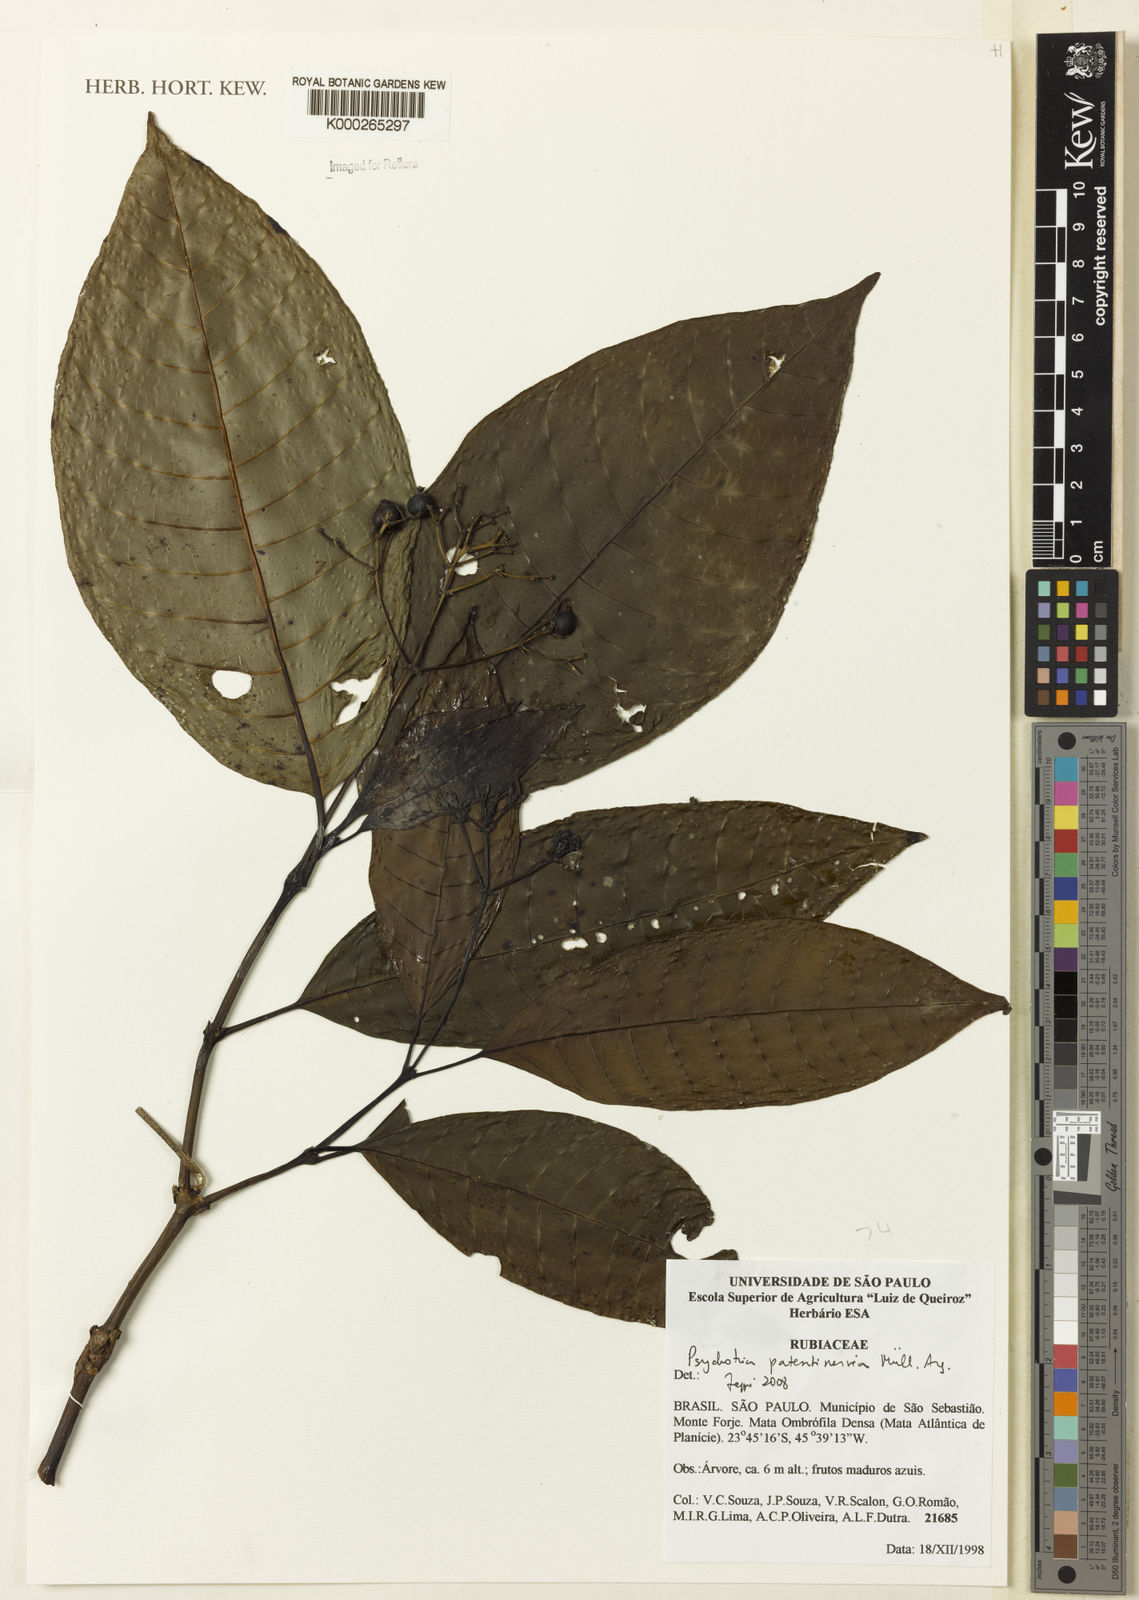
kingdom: Plantae
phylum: Tracheophyta
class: Magnoliopsida
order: Gentianales
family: Rubiaceae
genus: Psychotria
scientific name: Psychotria
